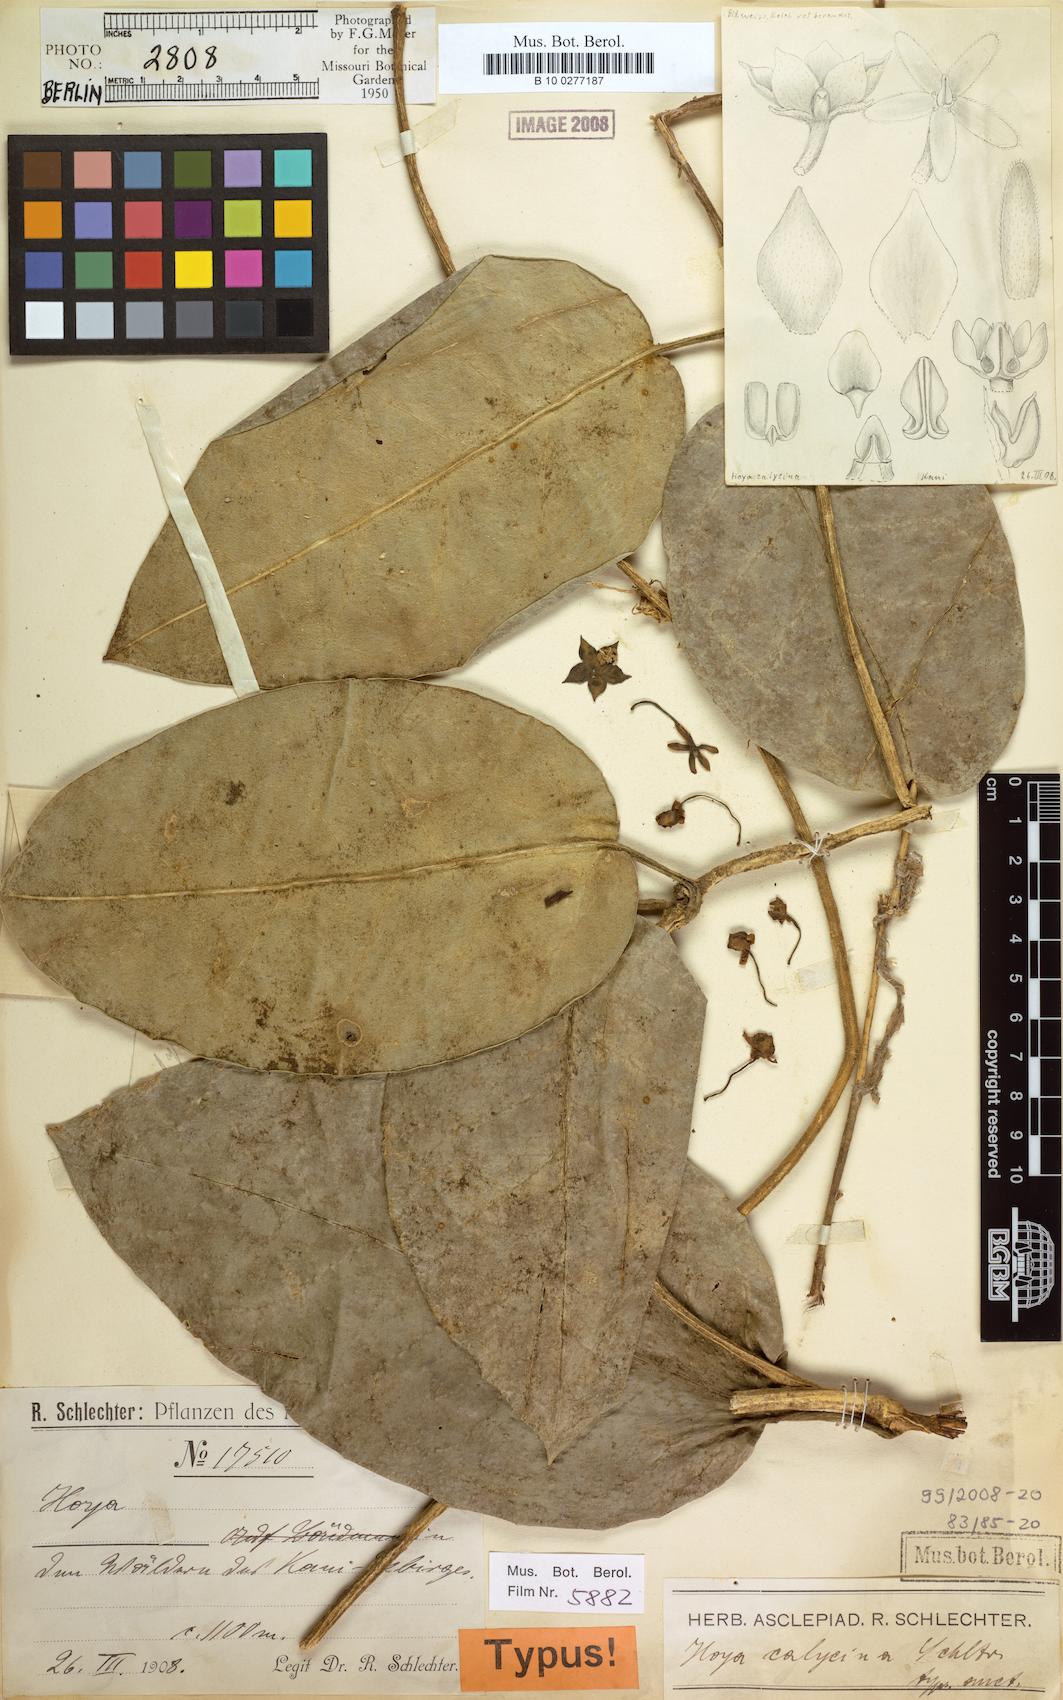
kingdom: Plantae
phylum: Tracheophyta
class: Magnoliopsida
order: Gentianales
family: Apocynaceae
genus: Hoya
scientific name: Hoya calycina
